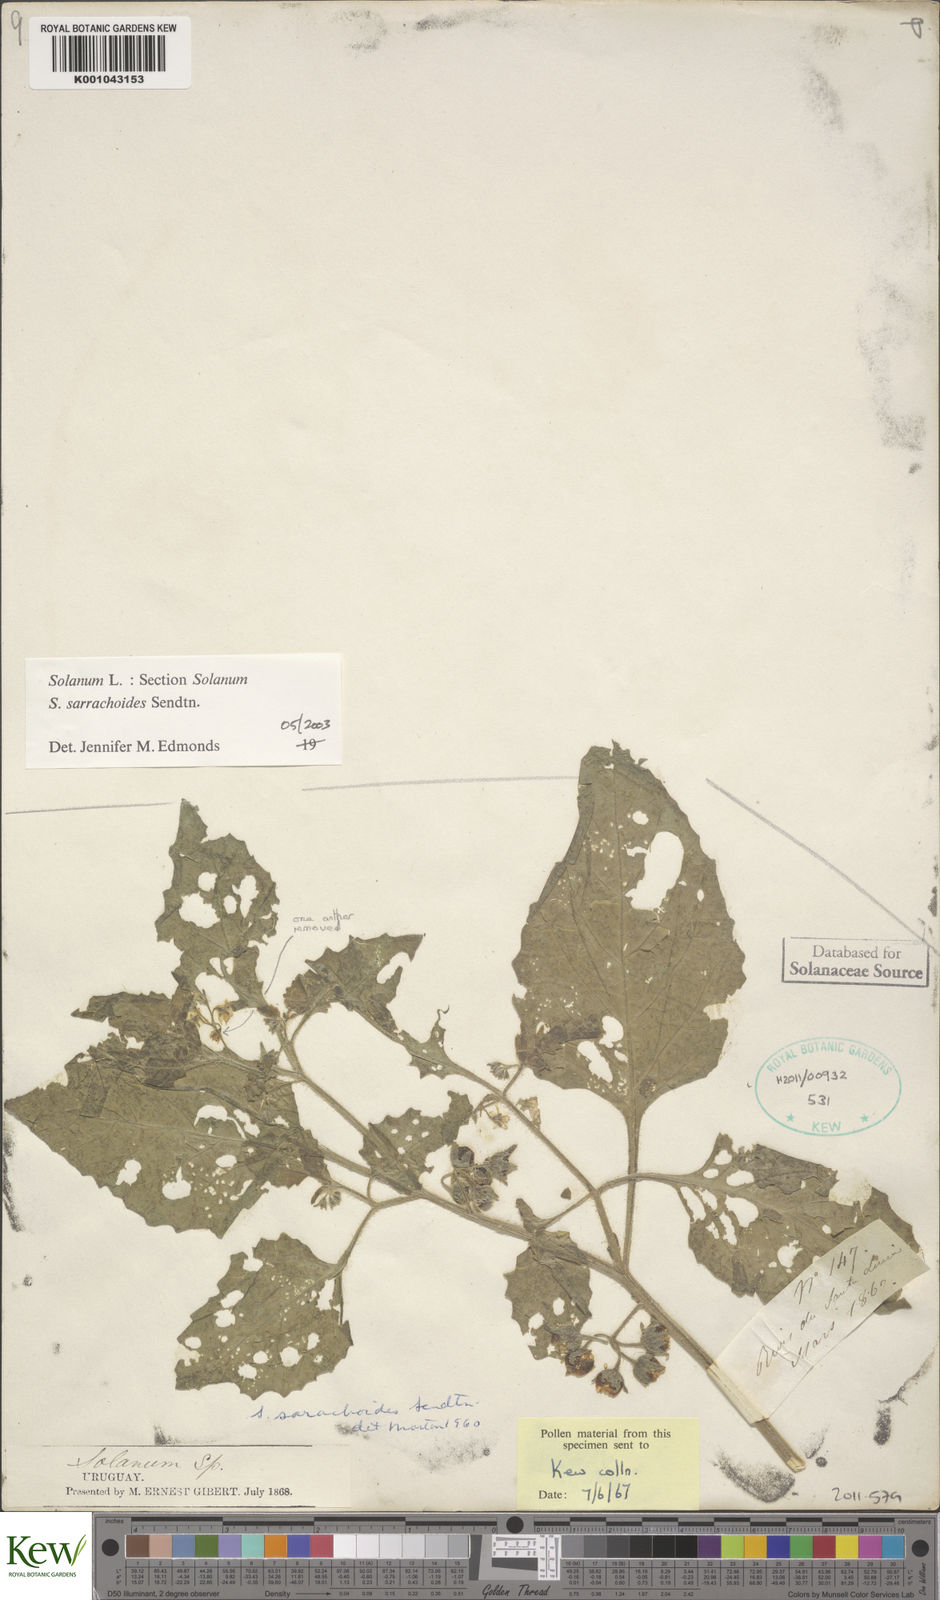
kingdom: Plantae
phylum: Tracheophyta
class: Magnoliopsida
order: Solanales
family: Solanaceae
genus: Solanum
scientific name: Solanum sarrachoides
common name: Leafy-fruited nightshade
